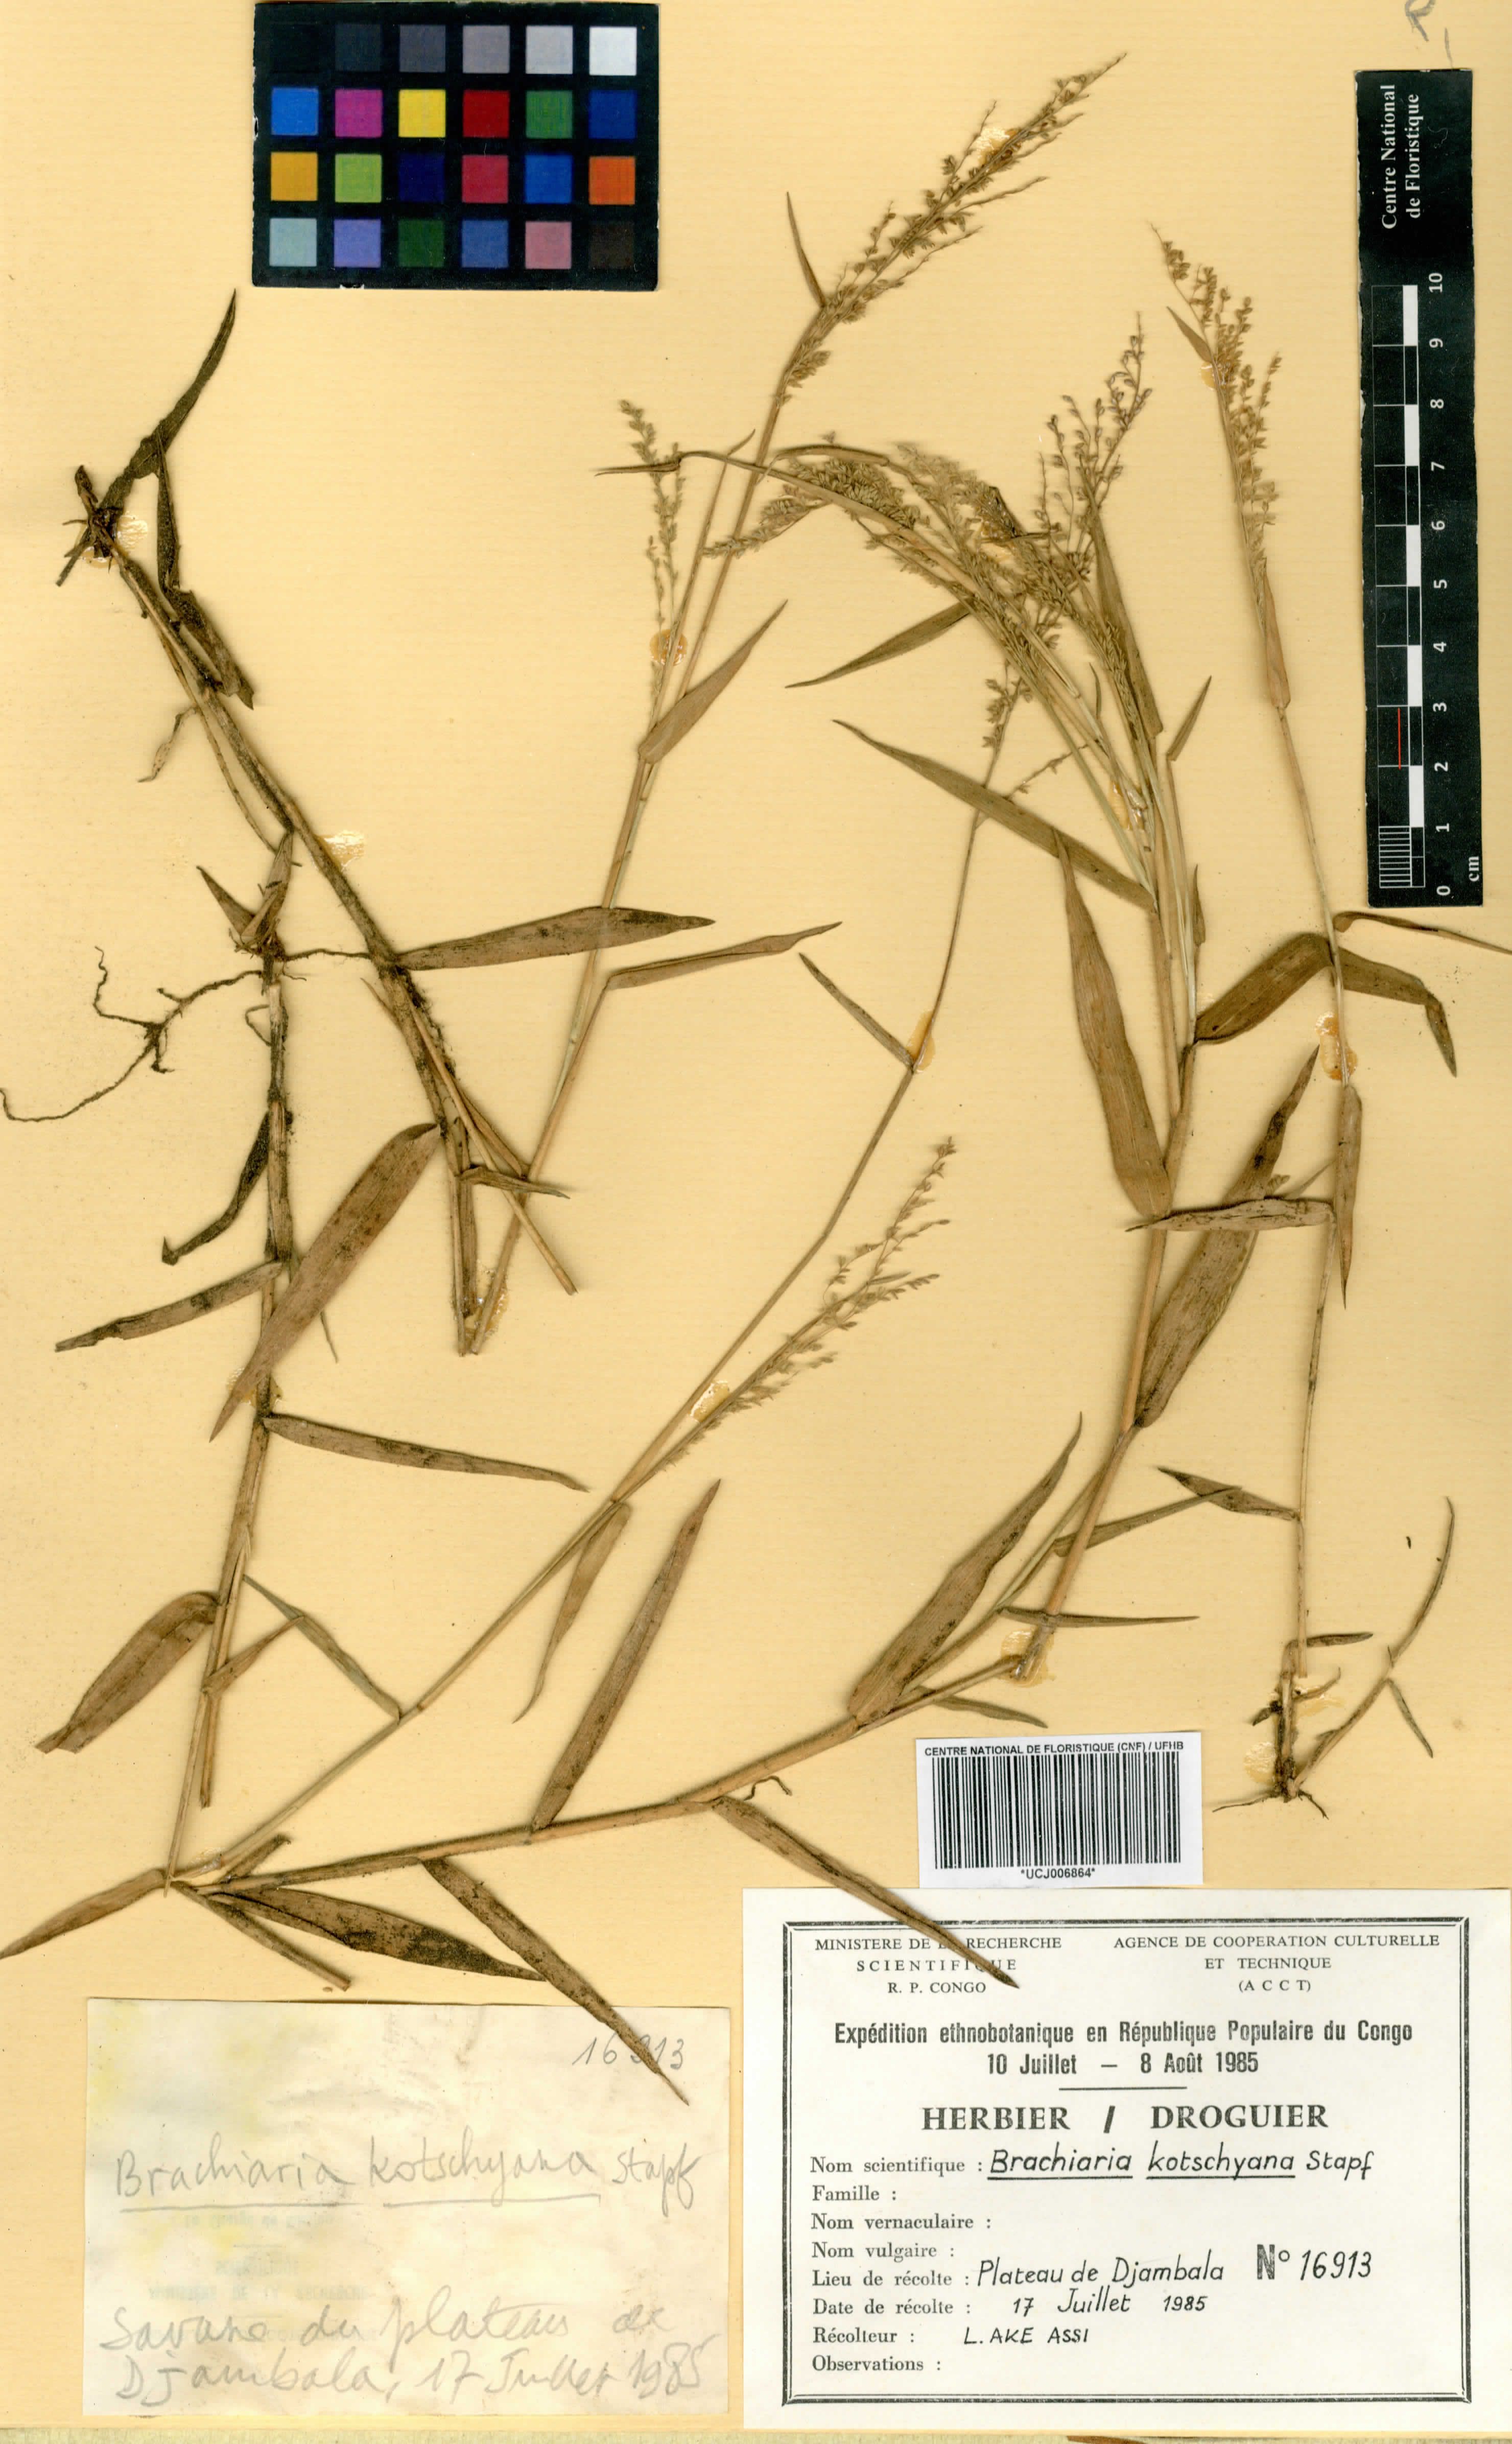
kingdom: Plantae
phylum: Tracheophyta
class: Liliopsida
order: Poales
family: Poaceae
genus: Brachiaria
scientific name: Brachiaria
